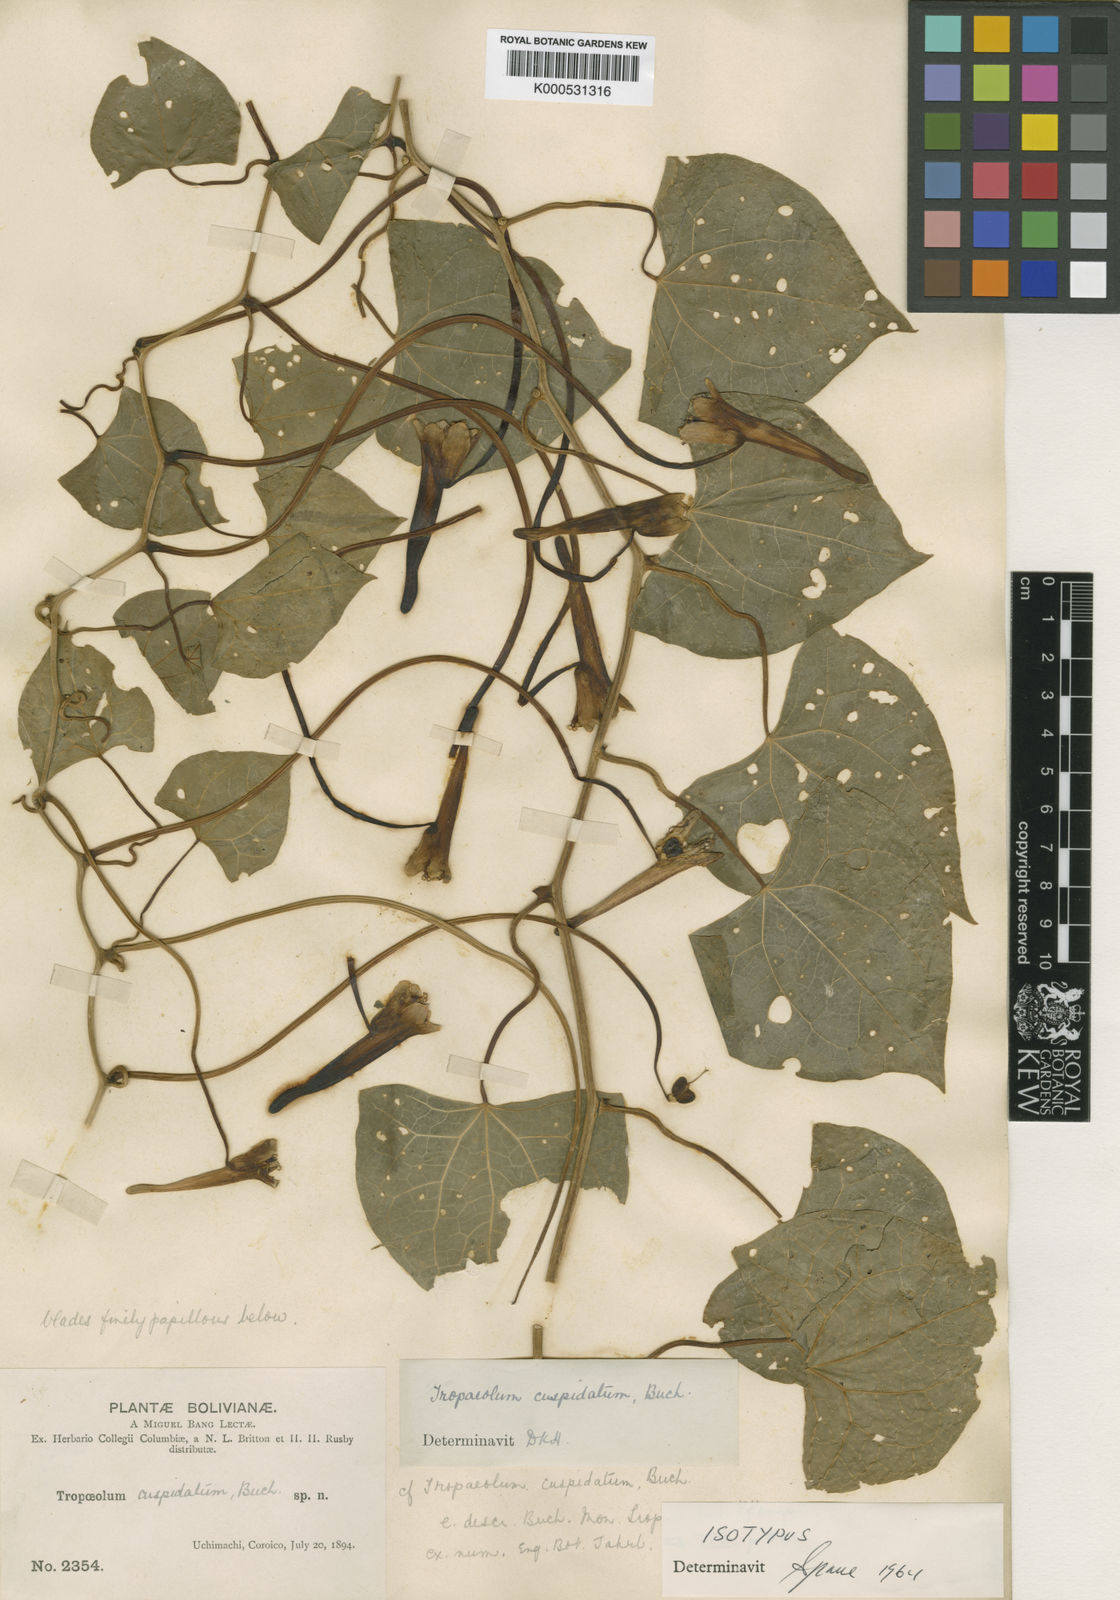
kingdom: Plantae
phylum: Tracheophyta
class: Magnoliopsida
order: Brassicales
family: Tropaeolaceae
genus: Tropaeolum
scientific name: Tropaeolum cuspidatum
